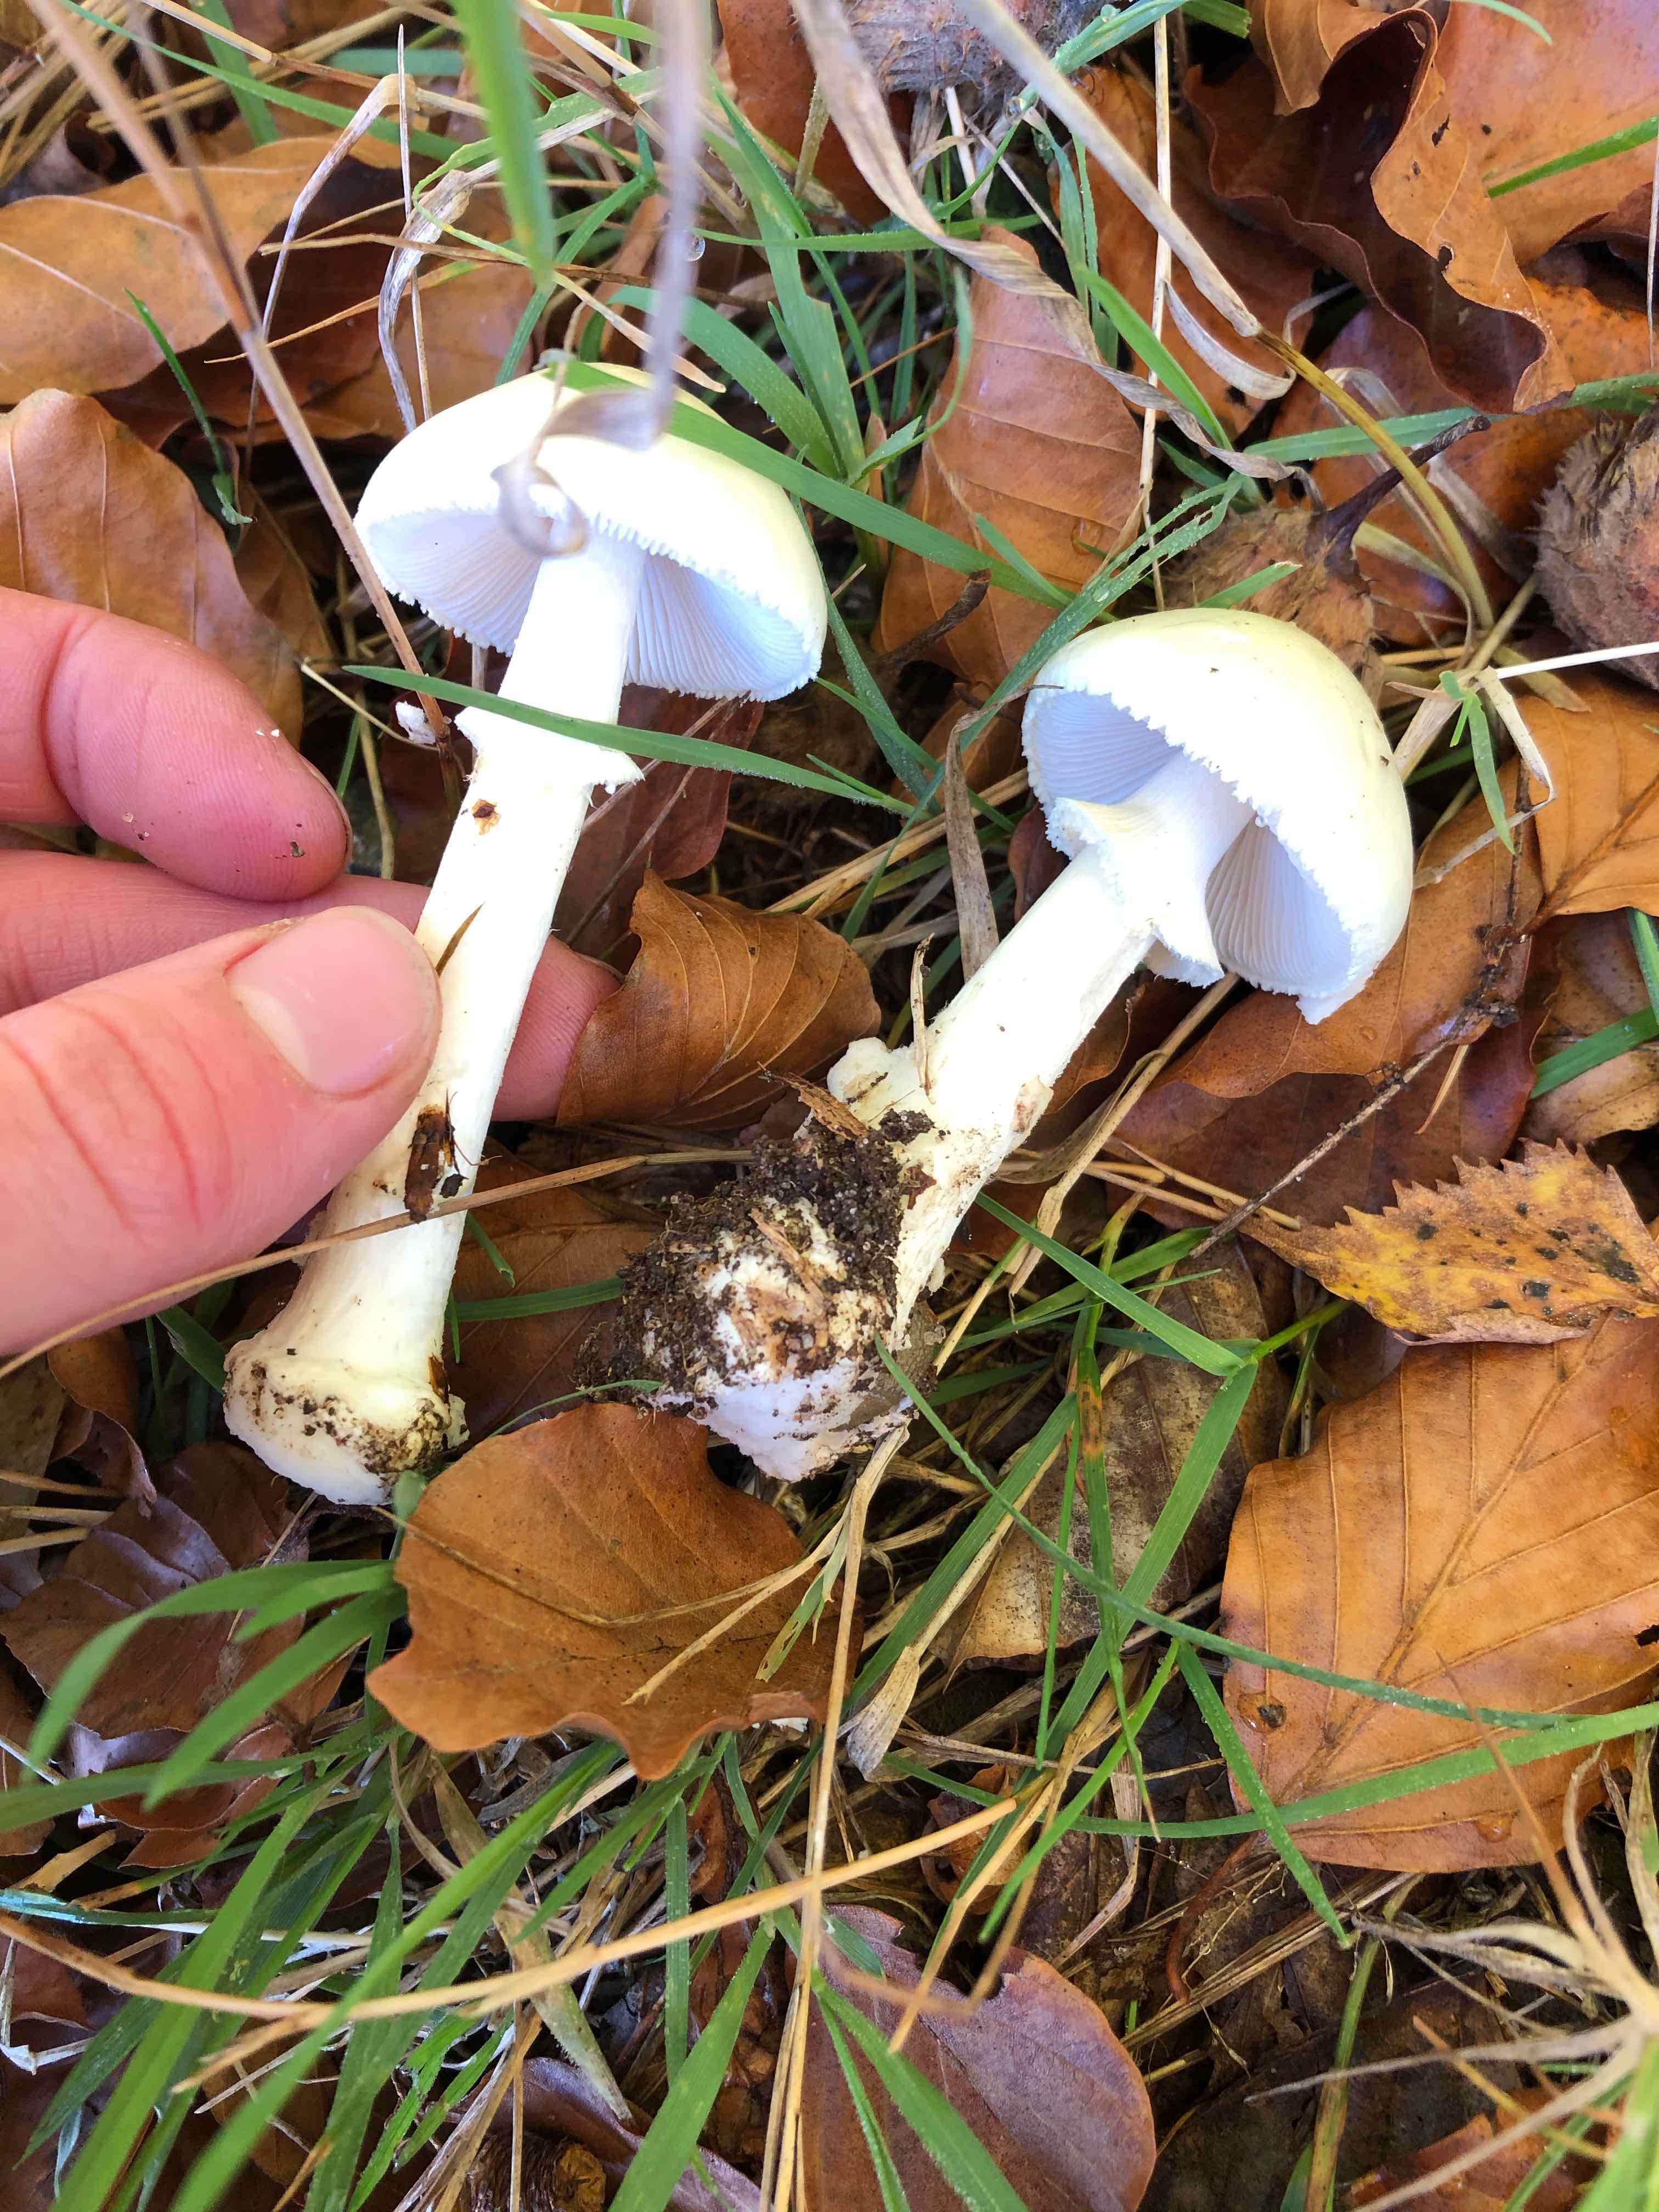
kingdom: Fungi
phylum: Basidiomycota
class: Agaricomycetes
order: Agaricales
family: Amanitaceae
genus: Amanita
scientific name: Amanita phalloides
